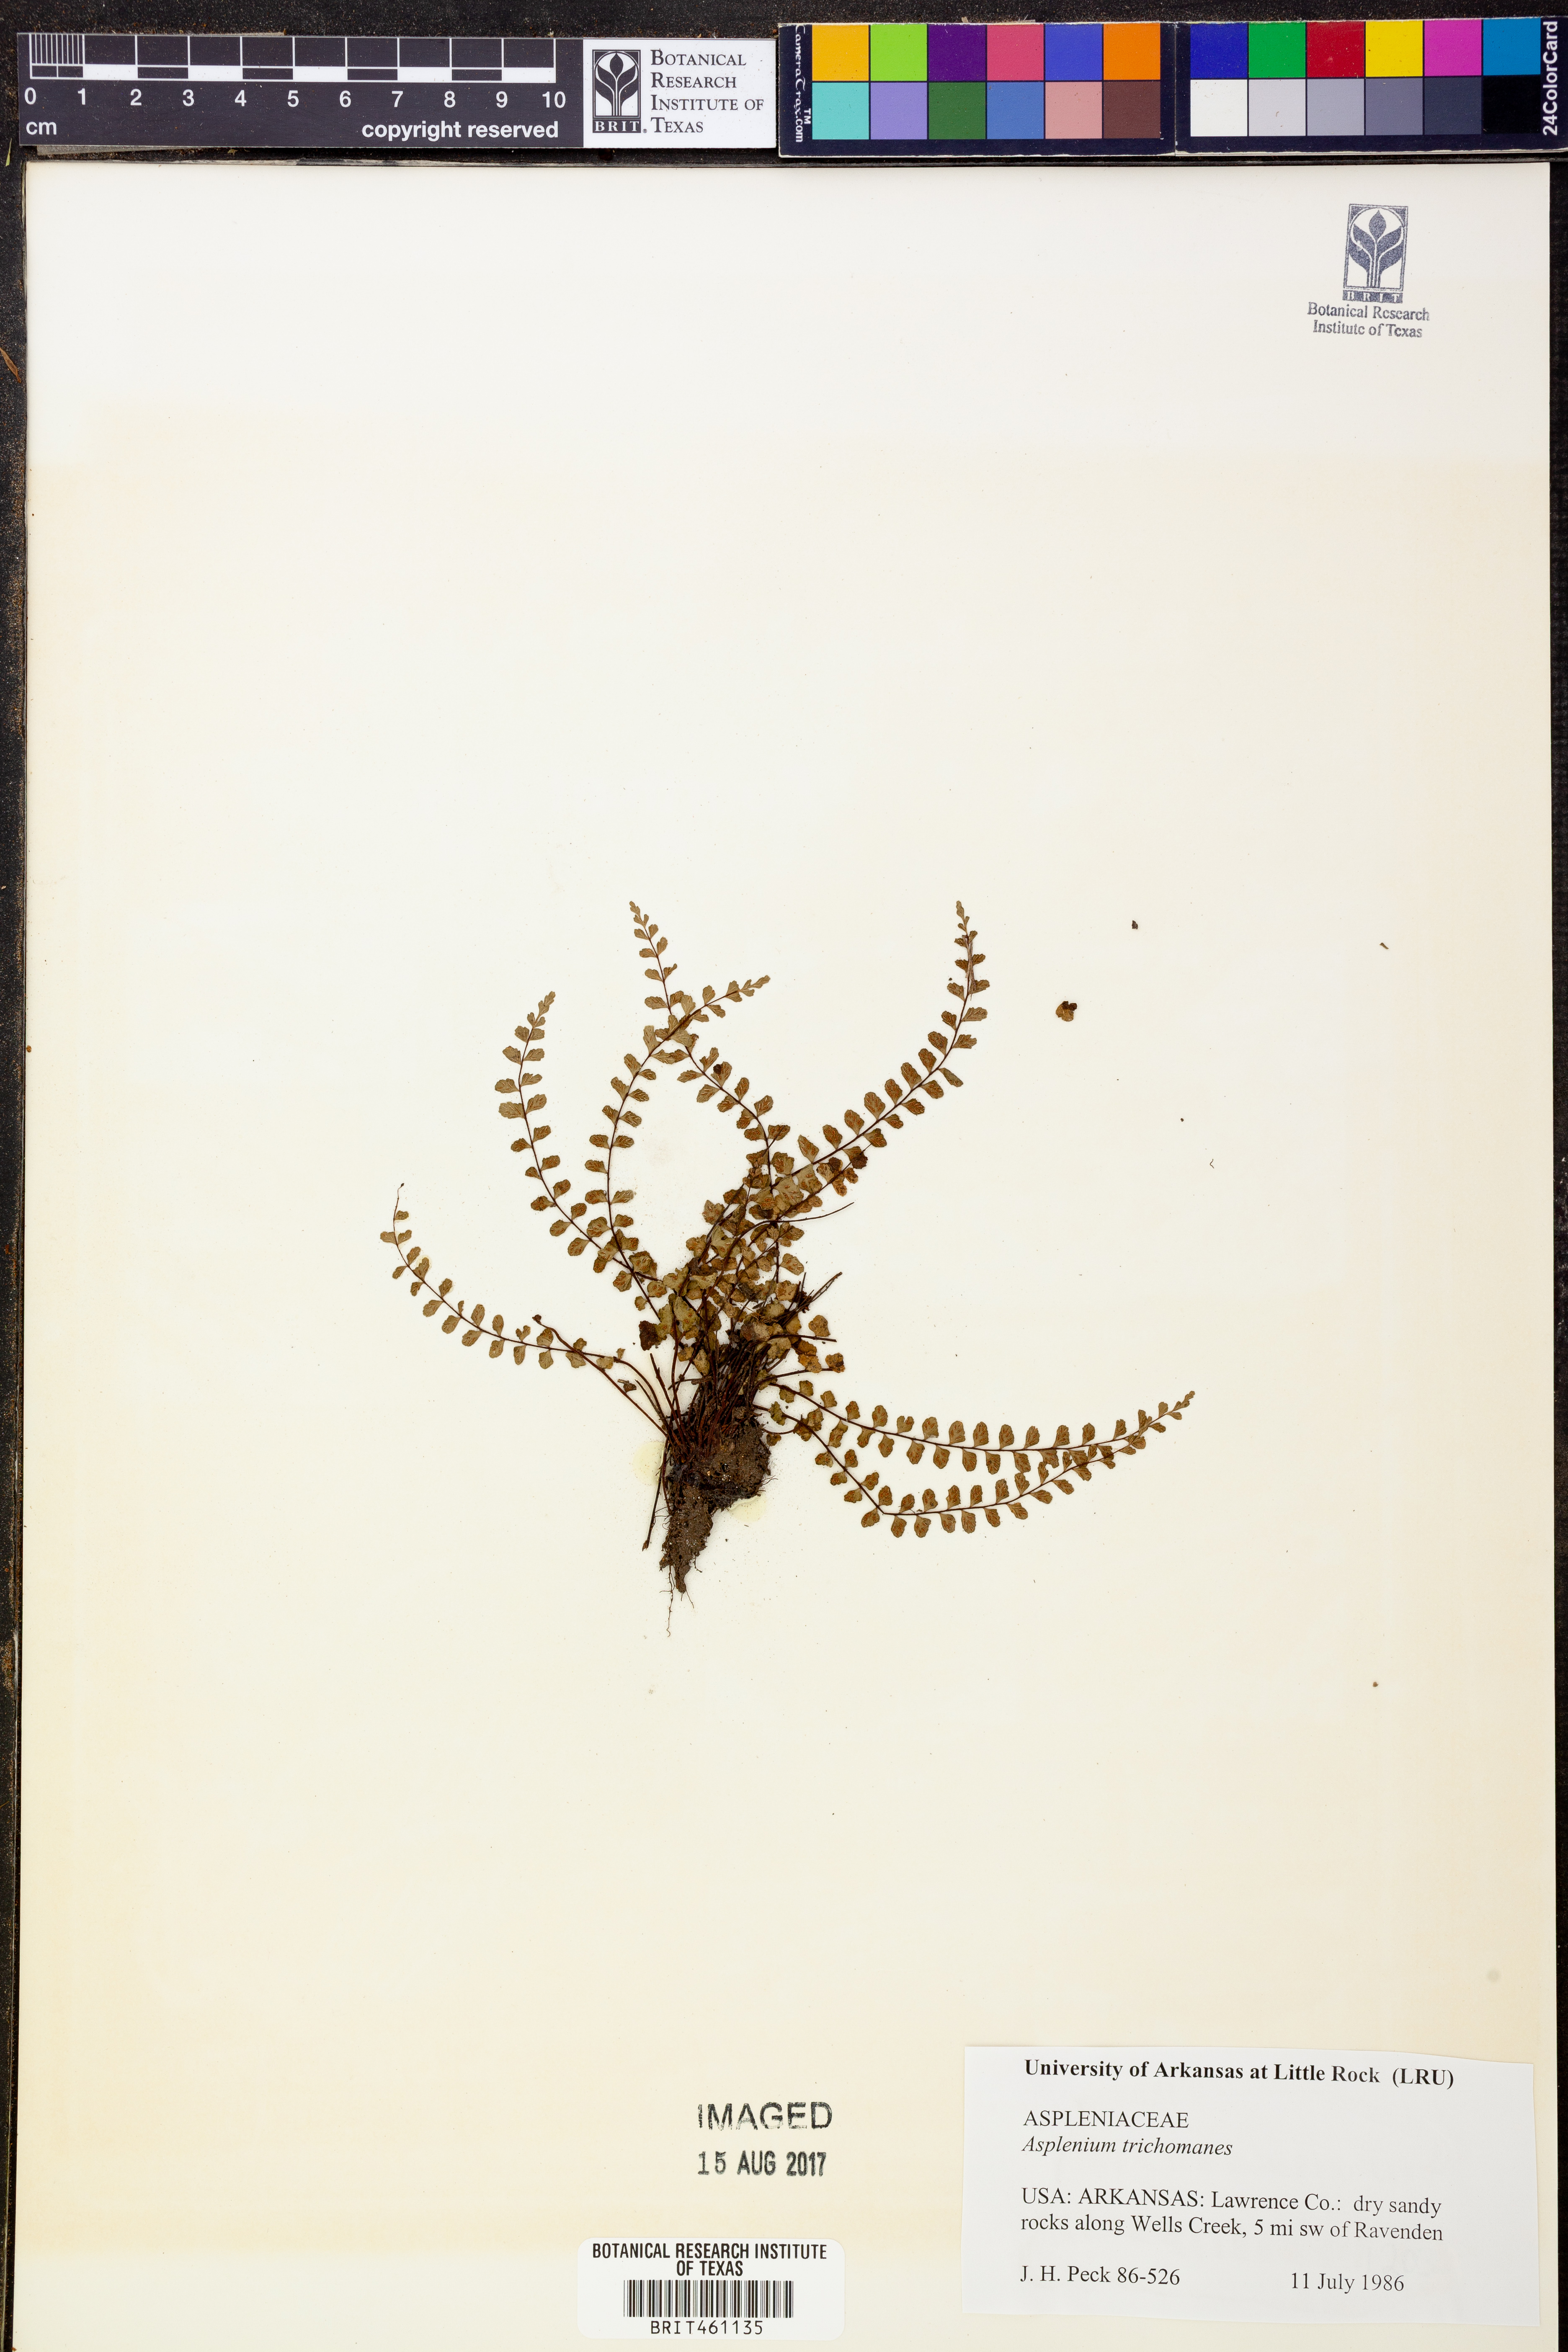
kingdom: Plantae
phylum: Tracheophyta
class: Polypodiopsida
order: Polypodiales
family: Aspleniaceae
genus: Asplenium
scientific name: Asplenium trichomanes
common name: Maidenhair spleenwort
